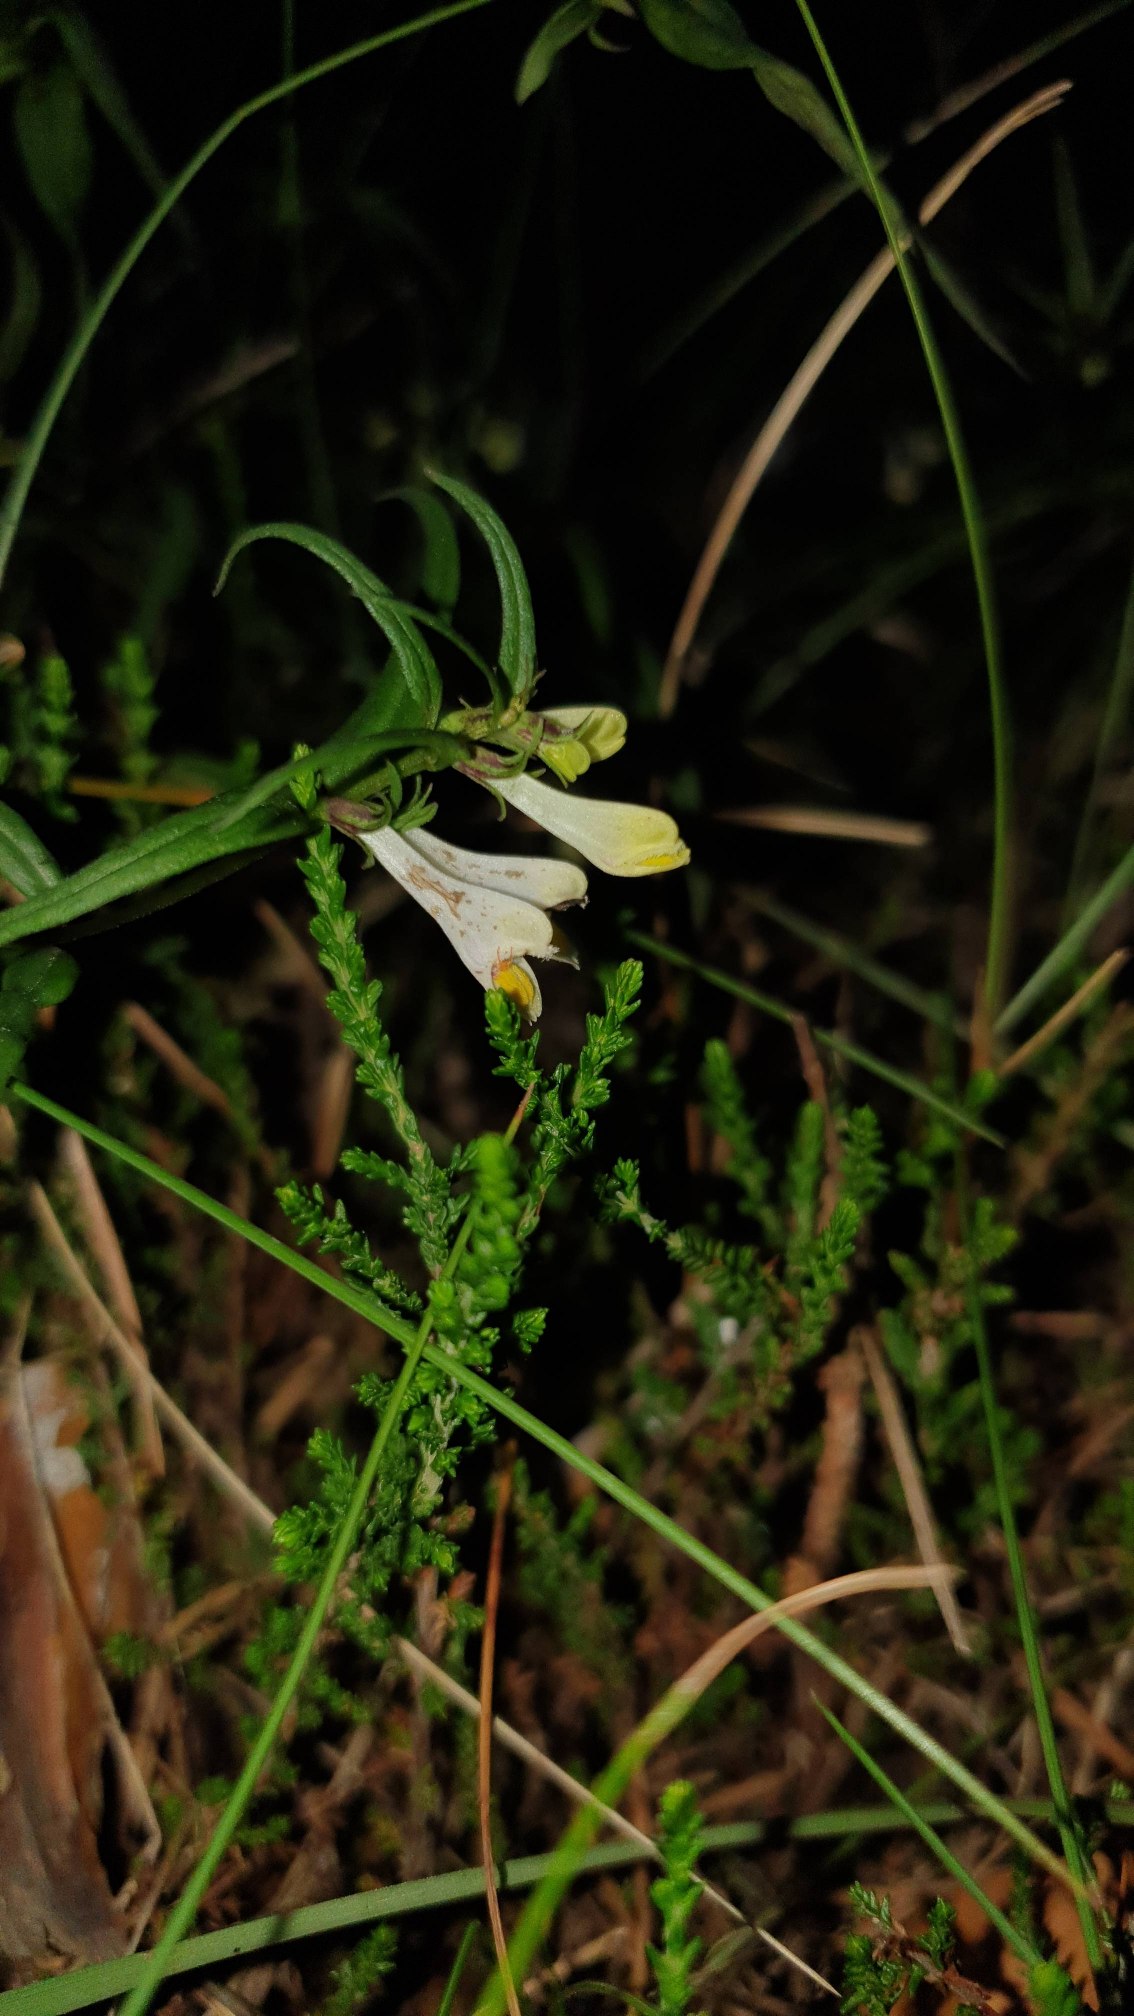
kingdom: Plantae
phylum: Tracheophyta
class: Magnoliopsida
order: Lamiales
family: Orobanchaceae
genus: Melampyrum
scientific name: Melampyrum pratense
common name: Almindelig kohvede
